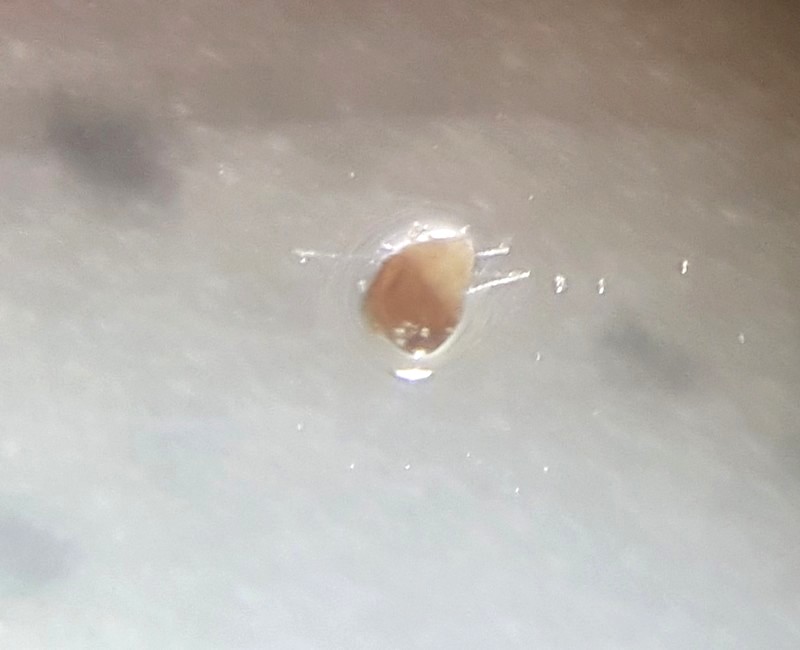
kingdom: Fungi
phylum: Ascomycota
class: Pezizomycetes
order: Pezizales
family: Ascobolaceae
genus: Ascobolus
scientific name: Ascobolus
